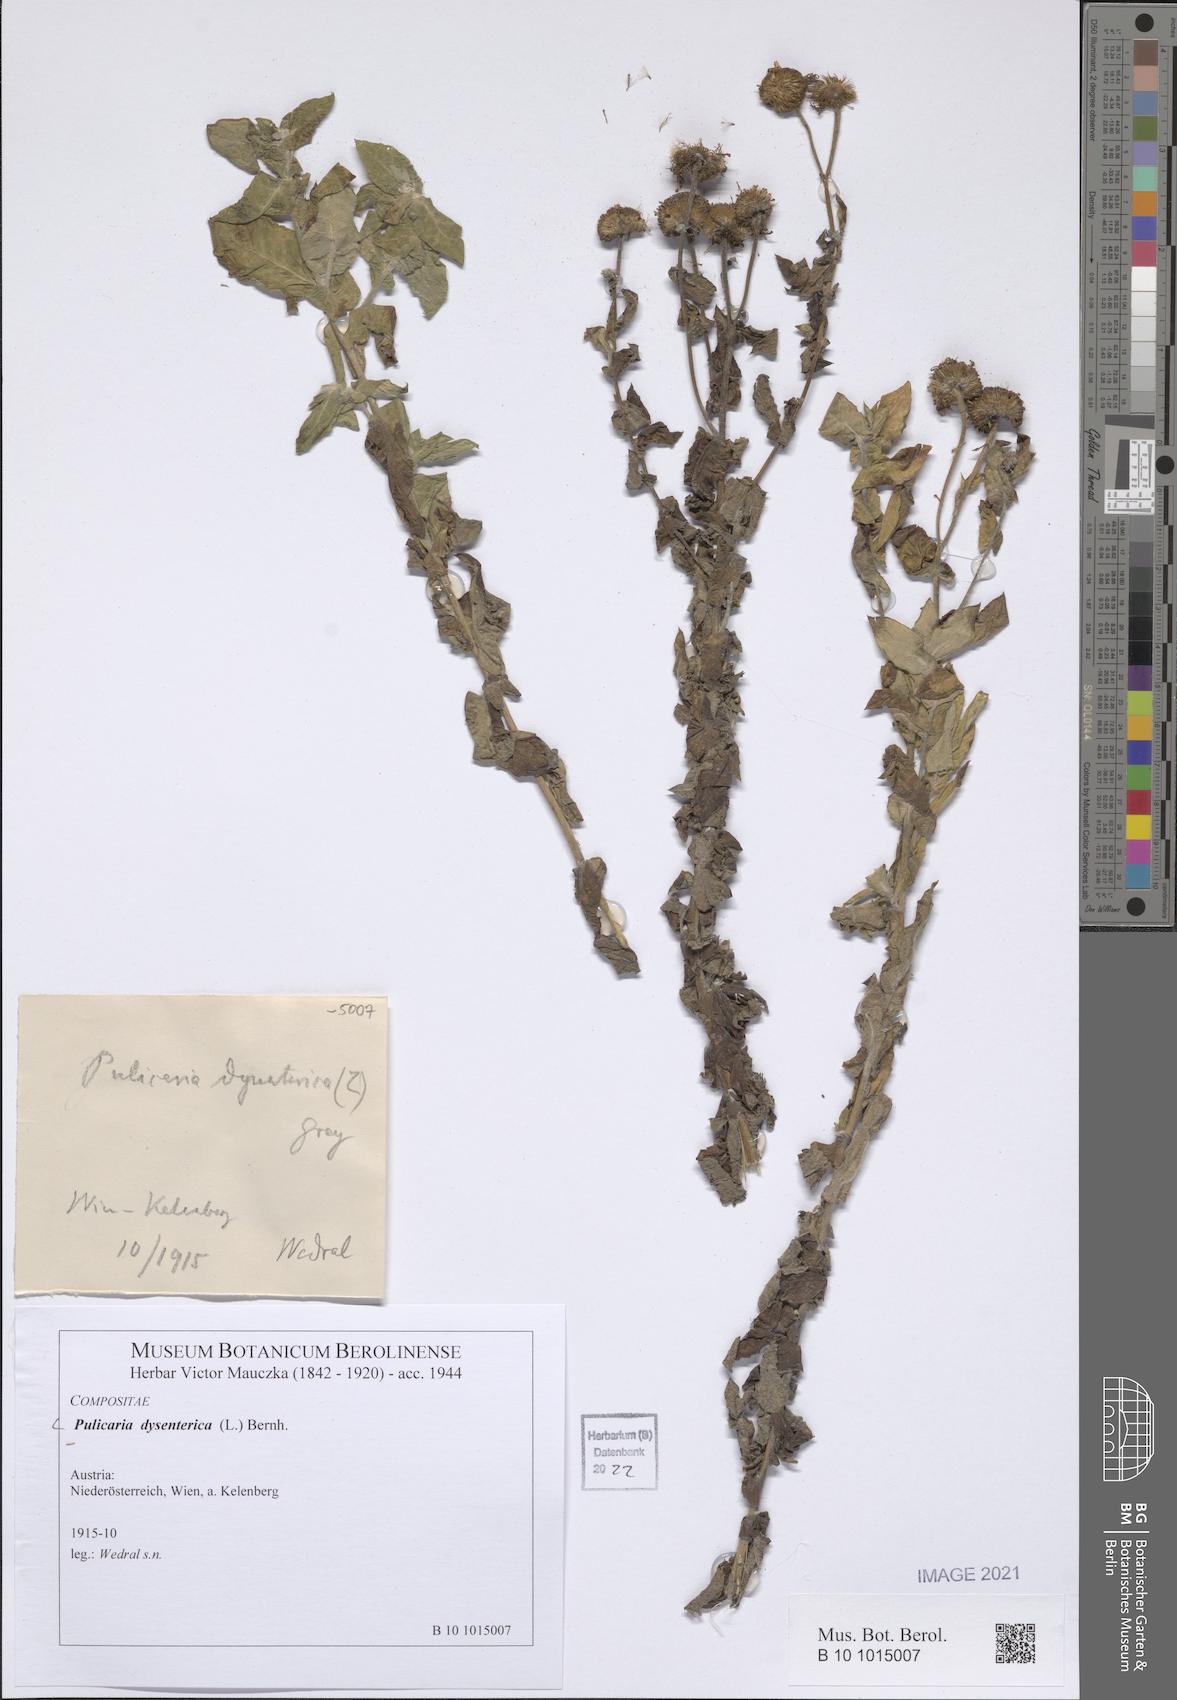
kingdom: Plantae
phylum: Tracheophyta
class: Magnoliopsida
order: Asterales
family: Asteraceae
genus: Pulicaria
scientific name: Pulicaria dysenterica
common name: Common fleabane
